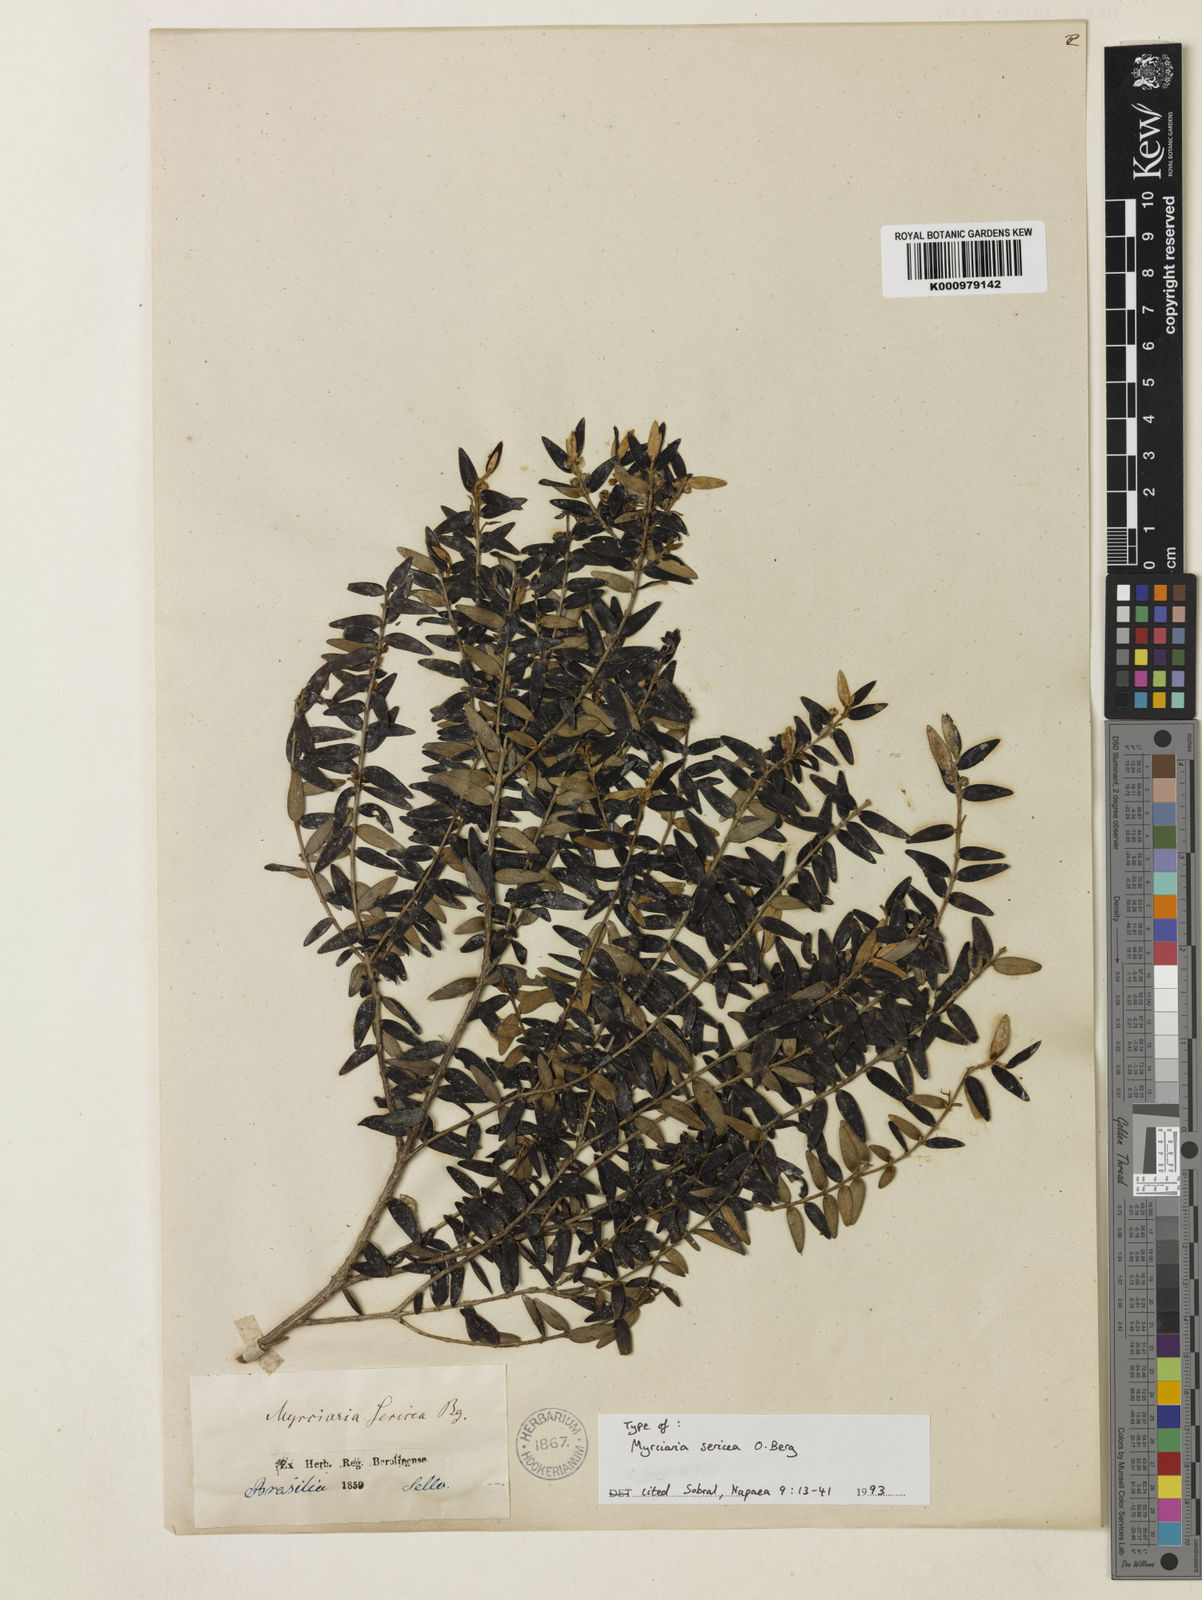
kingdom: Plantae
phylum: Tracheophyta
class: Magnoliopsida
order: Myrtales
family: Myrtaceae
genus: Myrcia
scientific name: Myrcia neosericea
